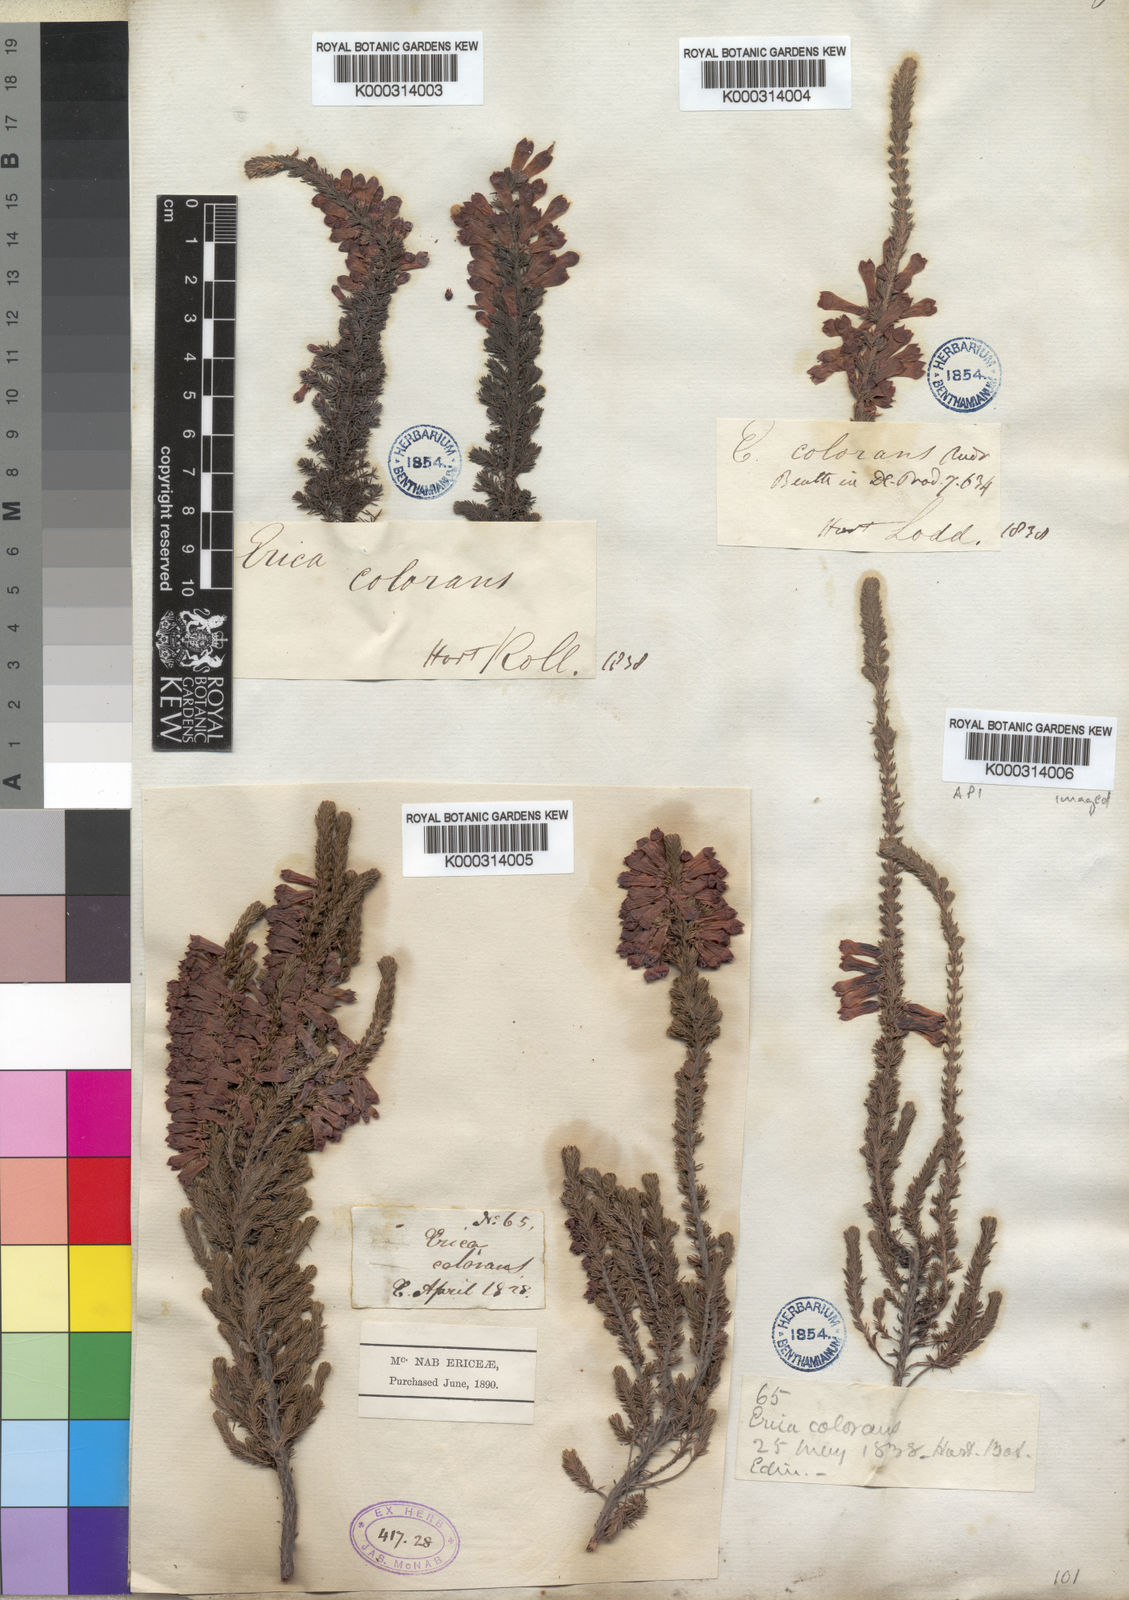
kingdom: Plantae
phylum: Tracheophyta
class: Magnoliopsida
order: Ericales
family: Ericaceae
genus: Erica
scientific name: Erica colorans
